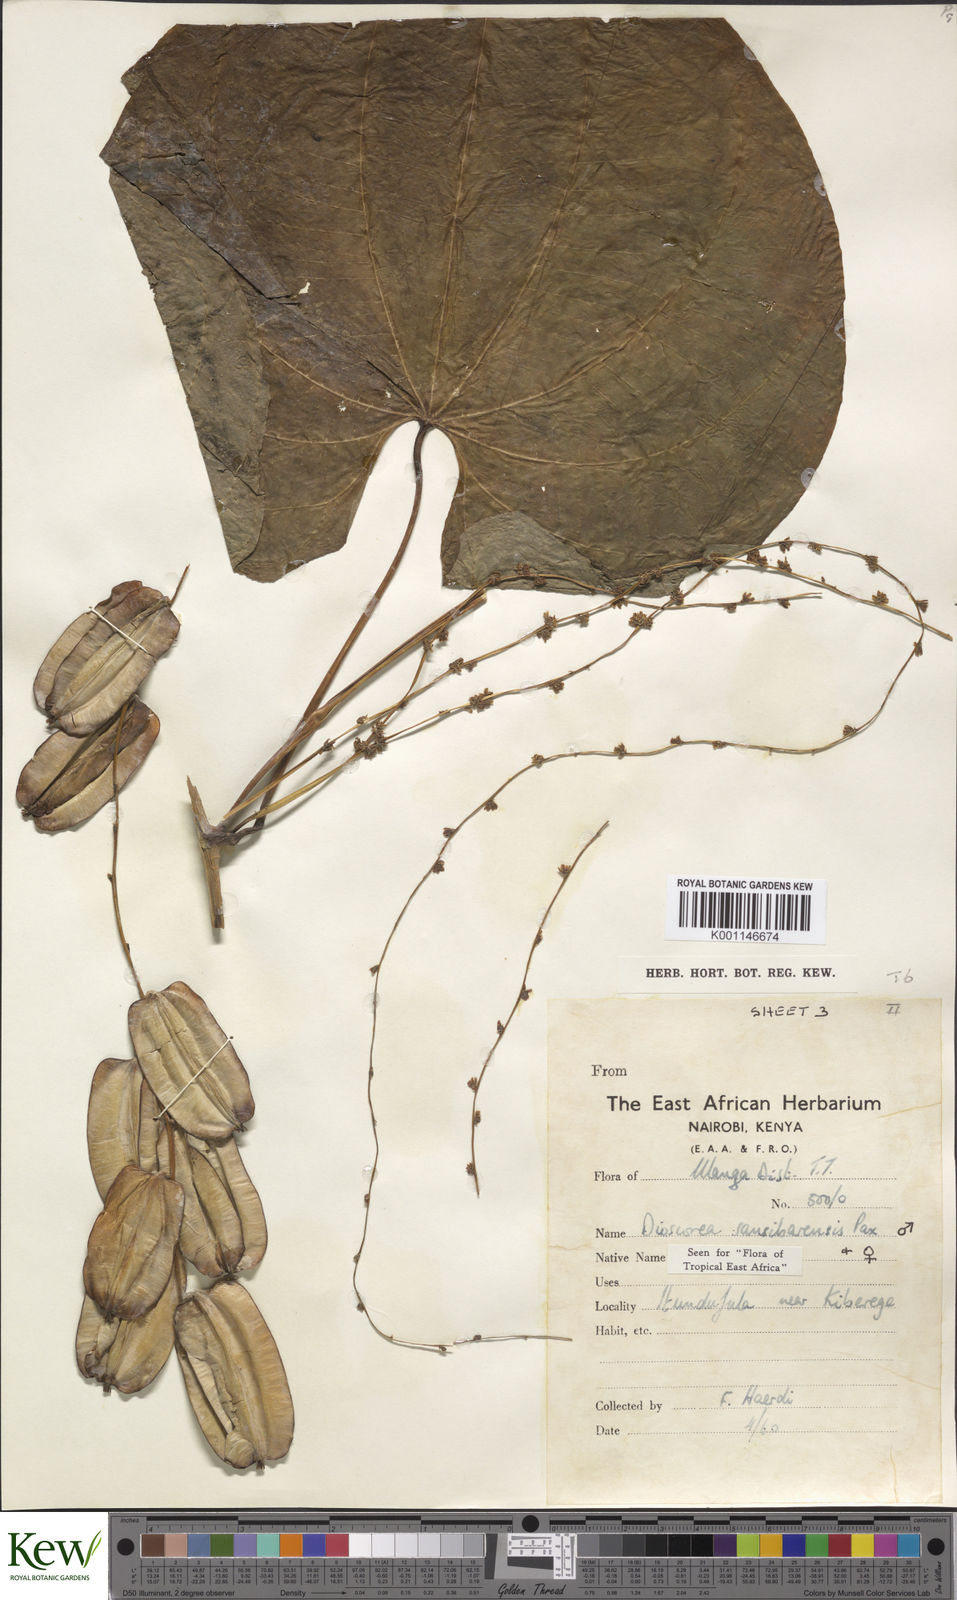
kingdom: Plantae
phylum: Tracheophyta
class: Liliopsida
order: Dioscoreales
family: Dioscoreaceae
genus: Dioscorea
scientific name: Dioscorea sansibarensis
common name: Zanzibar yam
